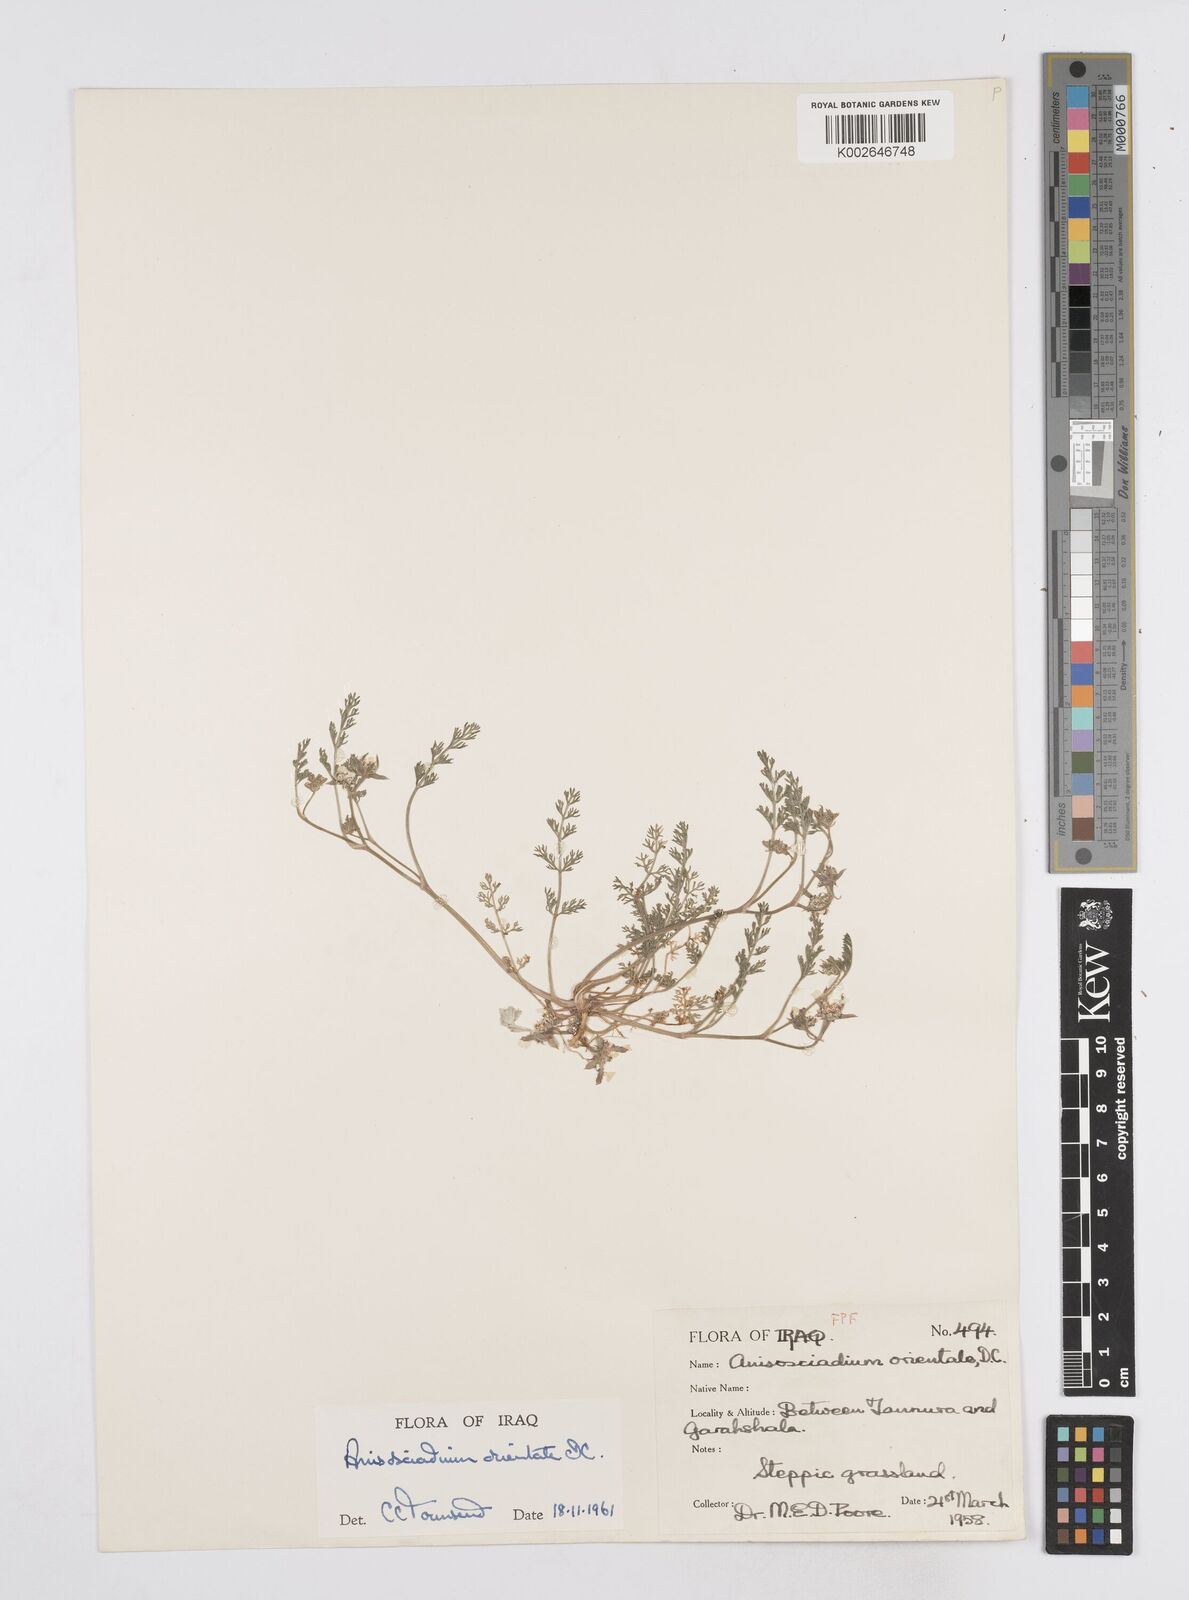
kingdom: Plantae
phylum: Tracheophyta
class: Magnoliopsida
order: Apiales
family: Apiaceae
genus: Anisosciadium
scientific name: Anisosciadium orientale
